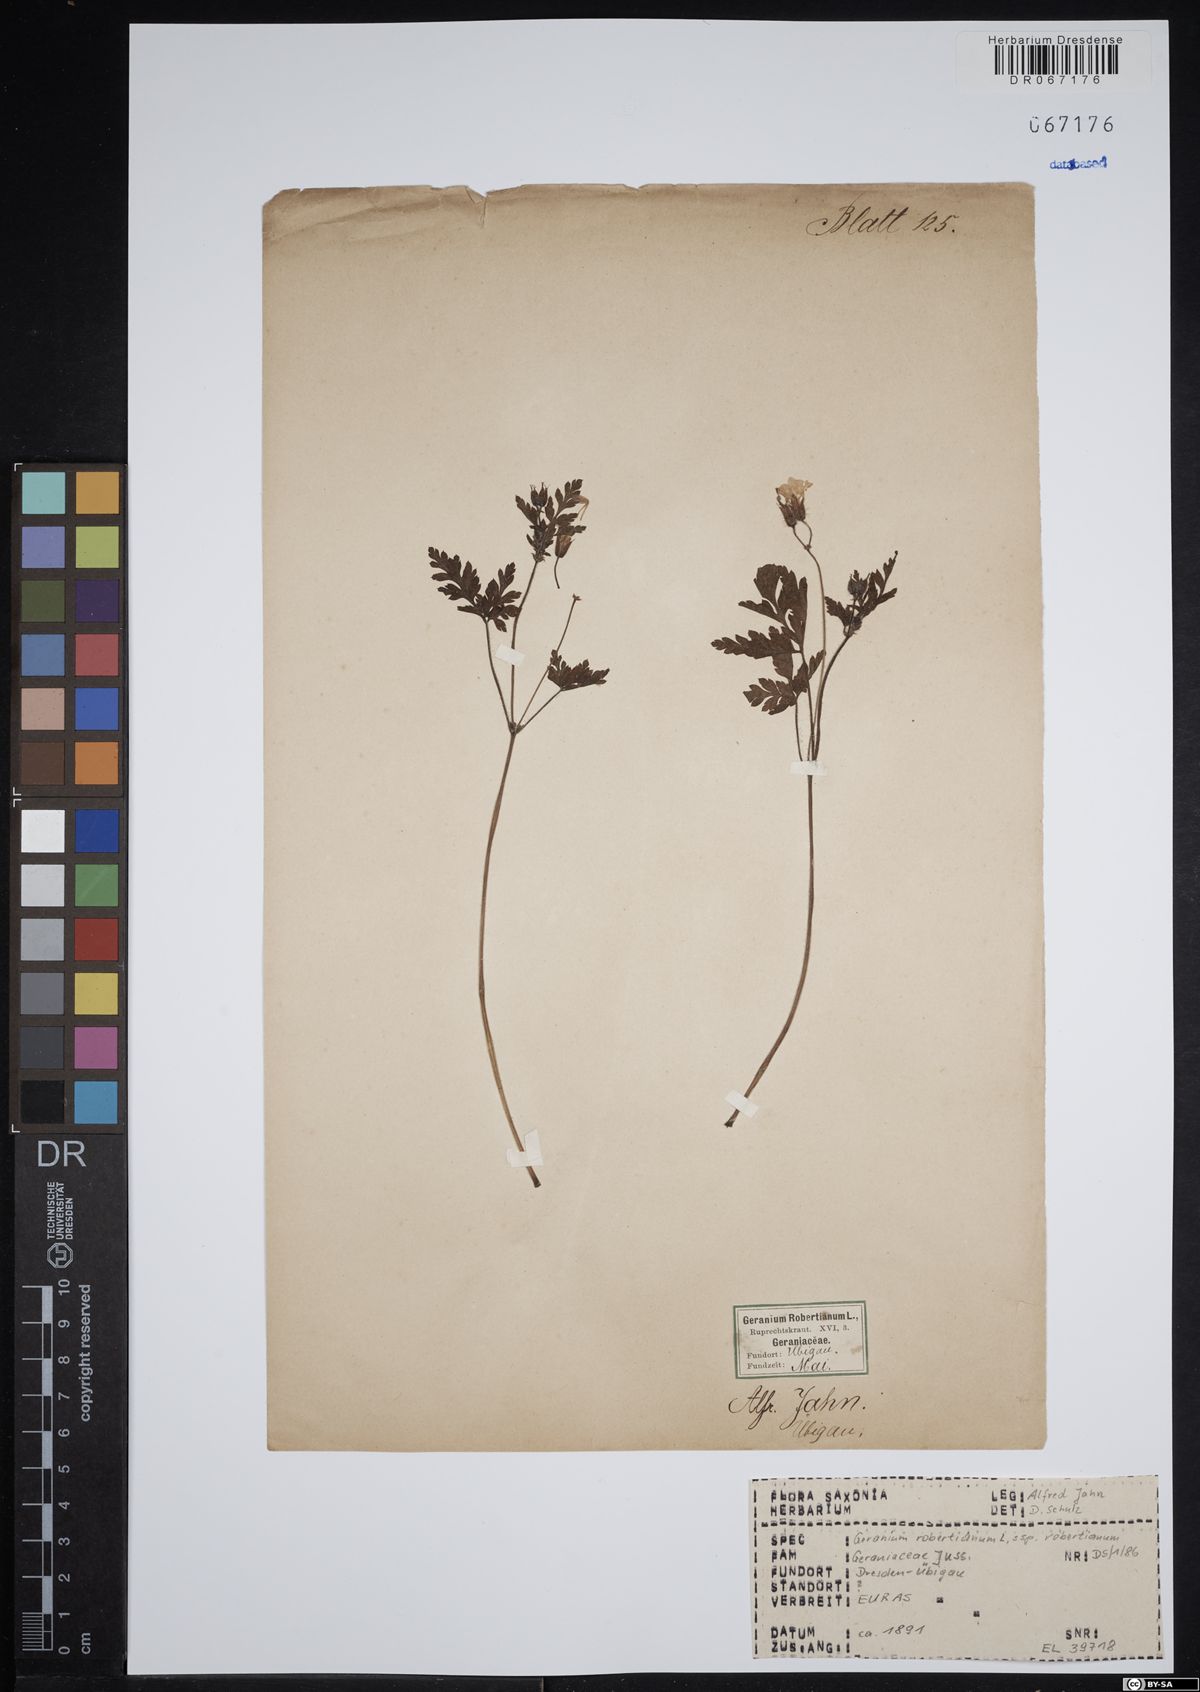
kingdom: Plantae
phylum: Tracheophyta
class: Magnoliopsida
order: Geraniales
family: Geraniaceae
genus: Geranium
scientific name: Geranium robertianum
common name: Herb-robert
